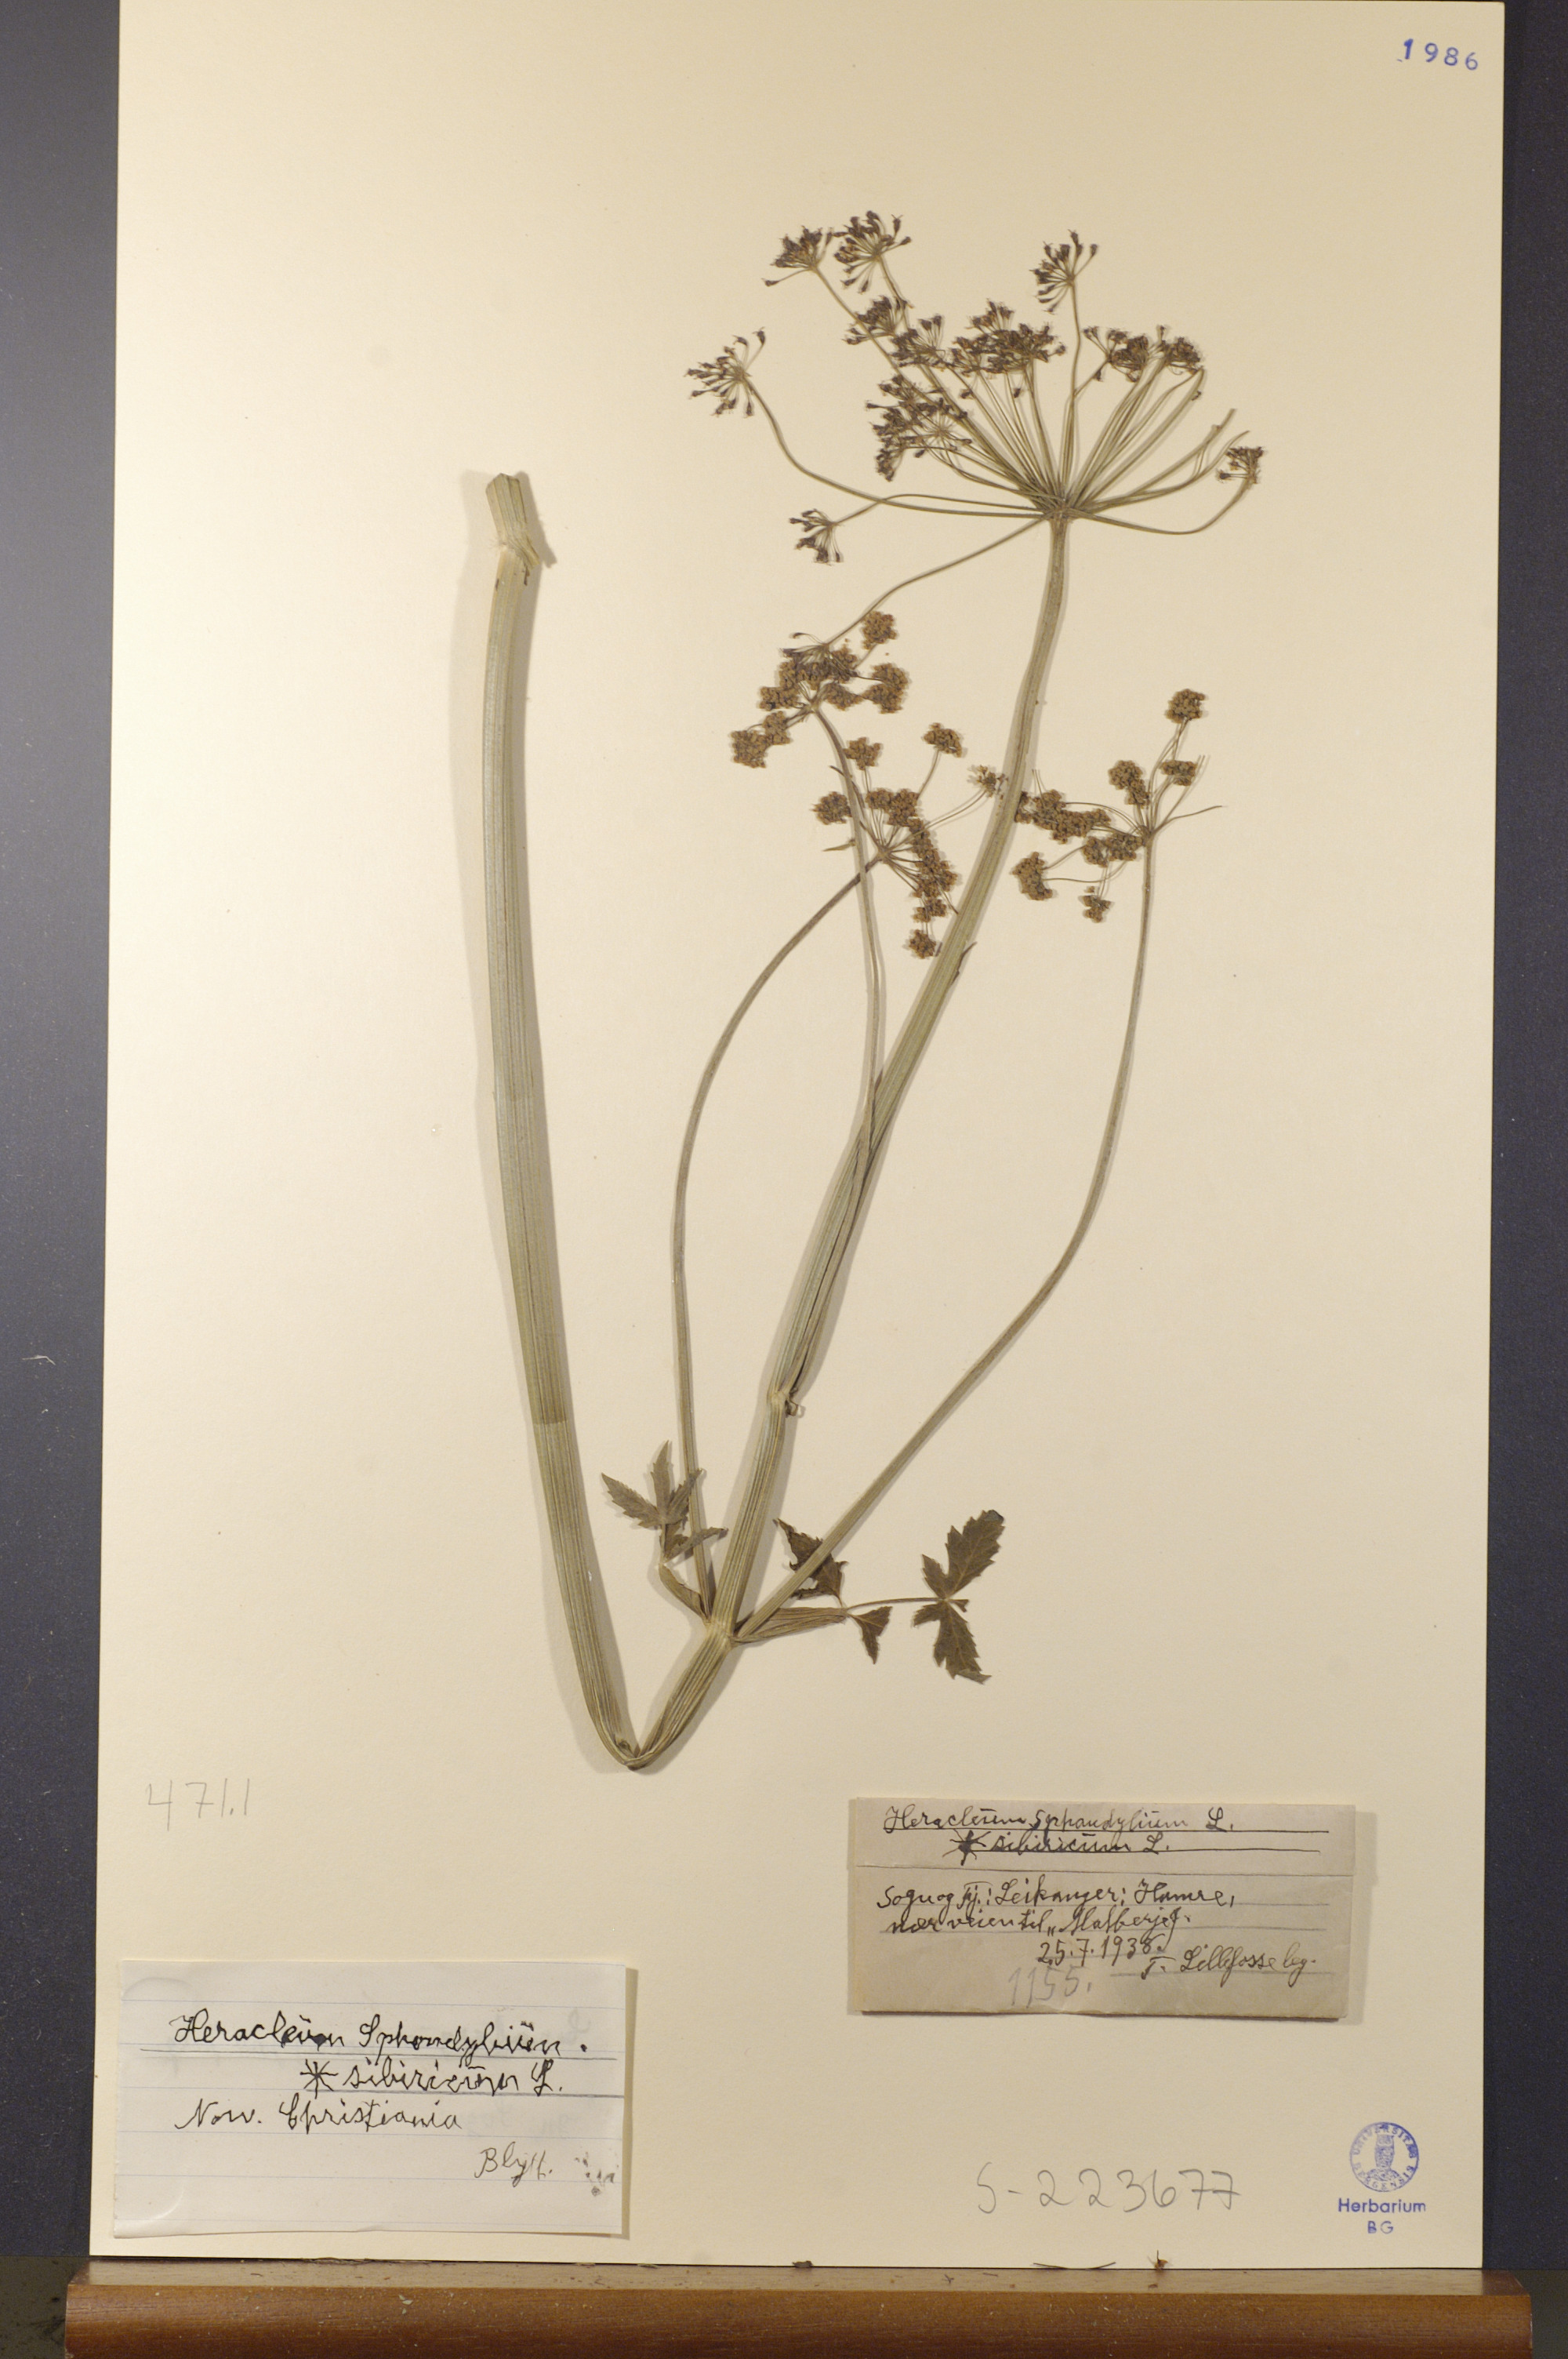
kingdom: Plantae
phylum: Tracheophyta
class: Magnoliopsida
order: Apiales
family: Apiaceae
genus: Heracleum
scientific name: Heracleum sphondylium
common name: Hogweed
